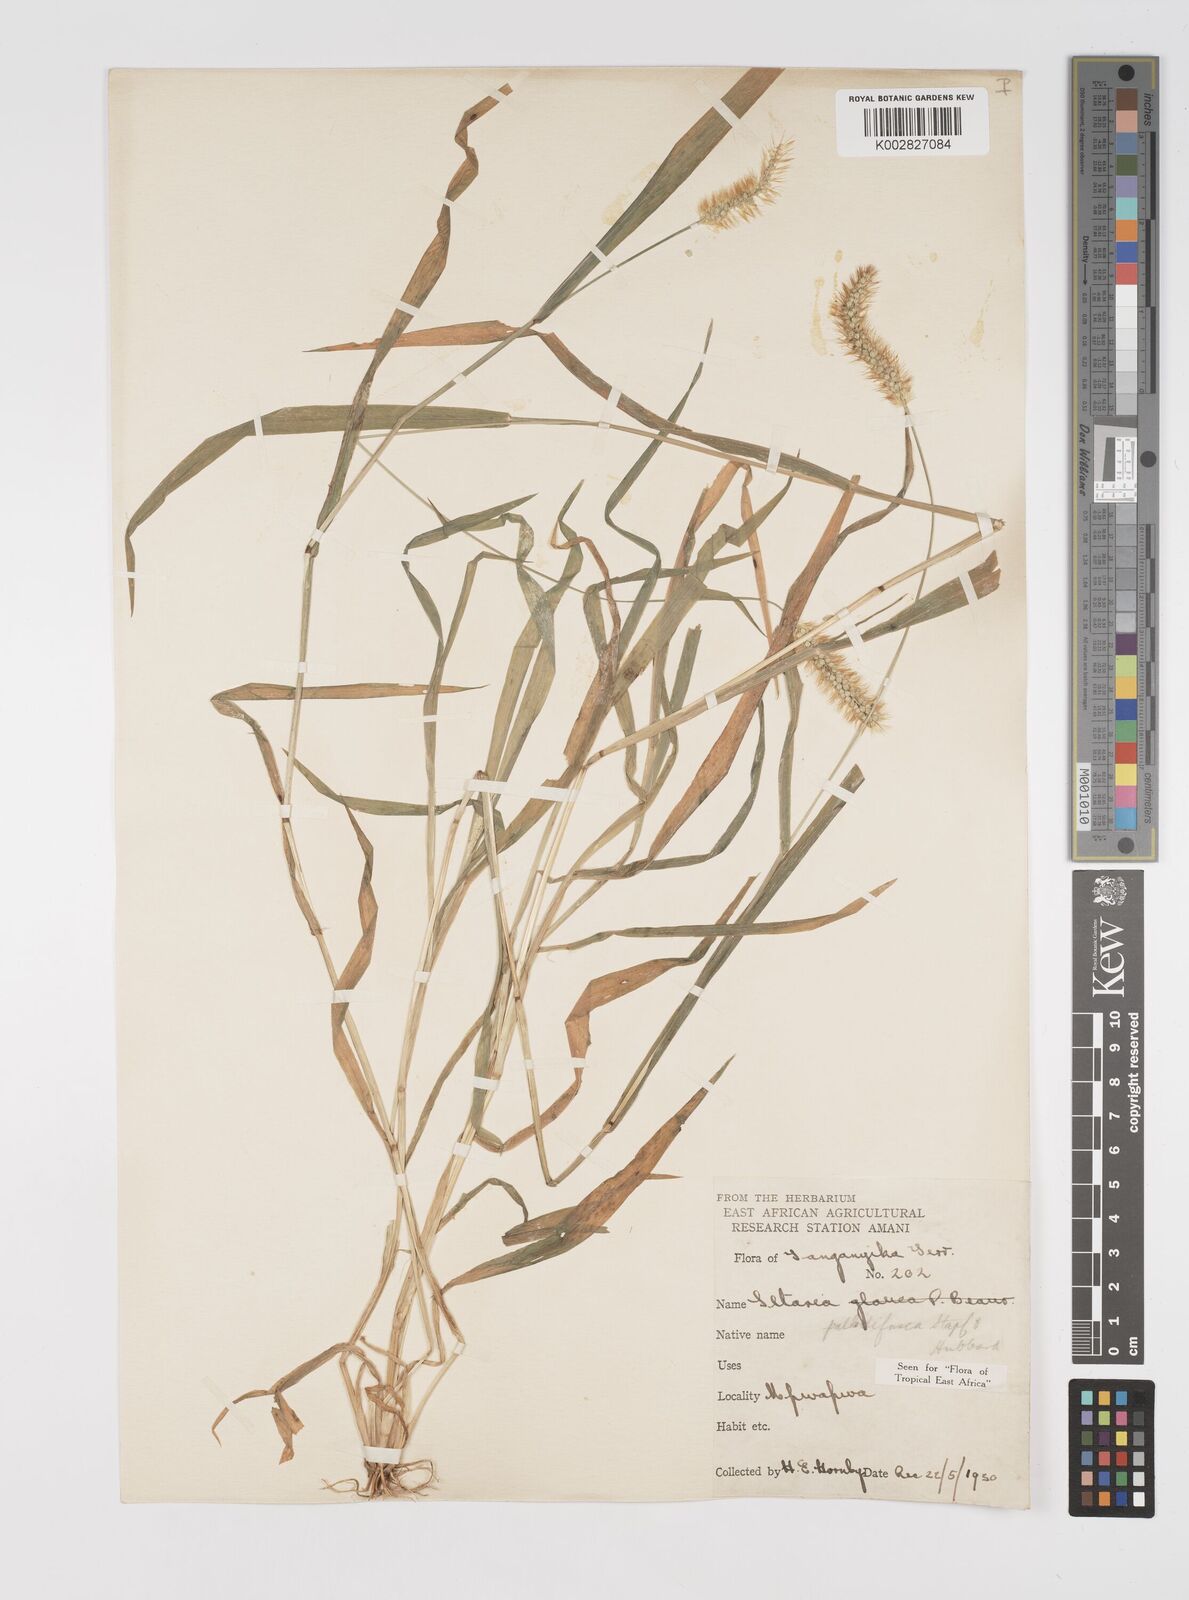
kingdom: Plantae
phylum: Tracheophyta
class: Liliopsida
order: Poales
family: Poaceae
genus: Setaria
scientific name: Setaria pumila
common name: Yellow bristle-grass
